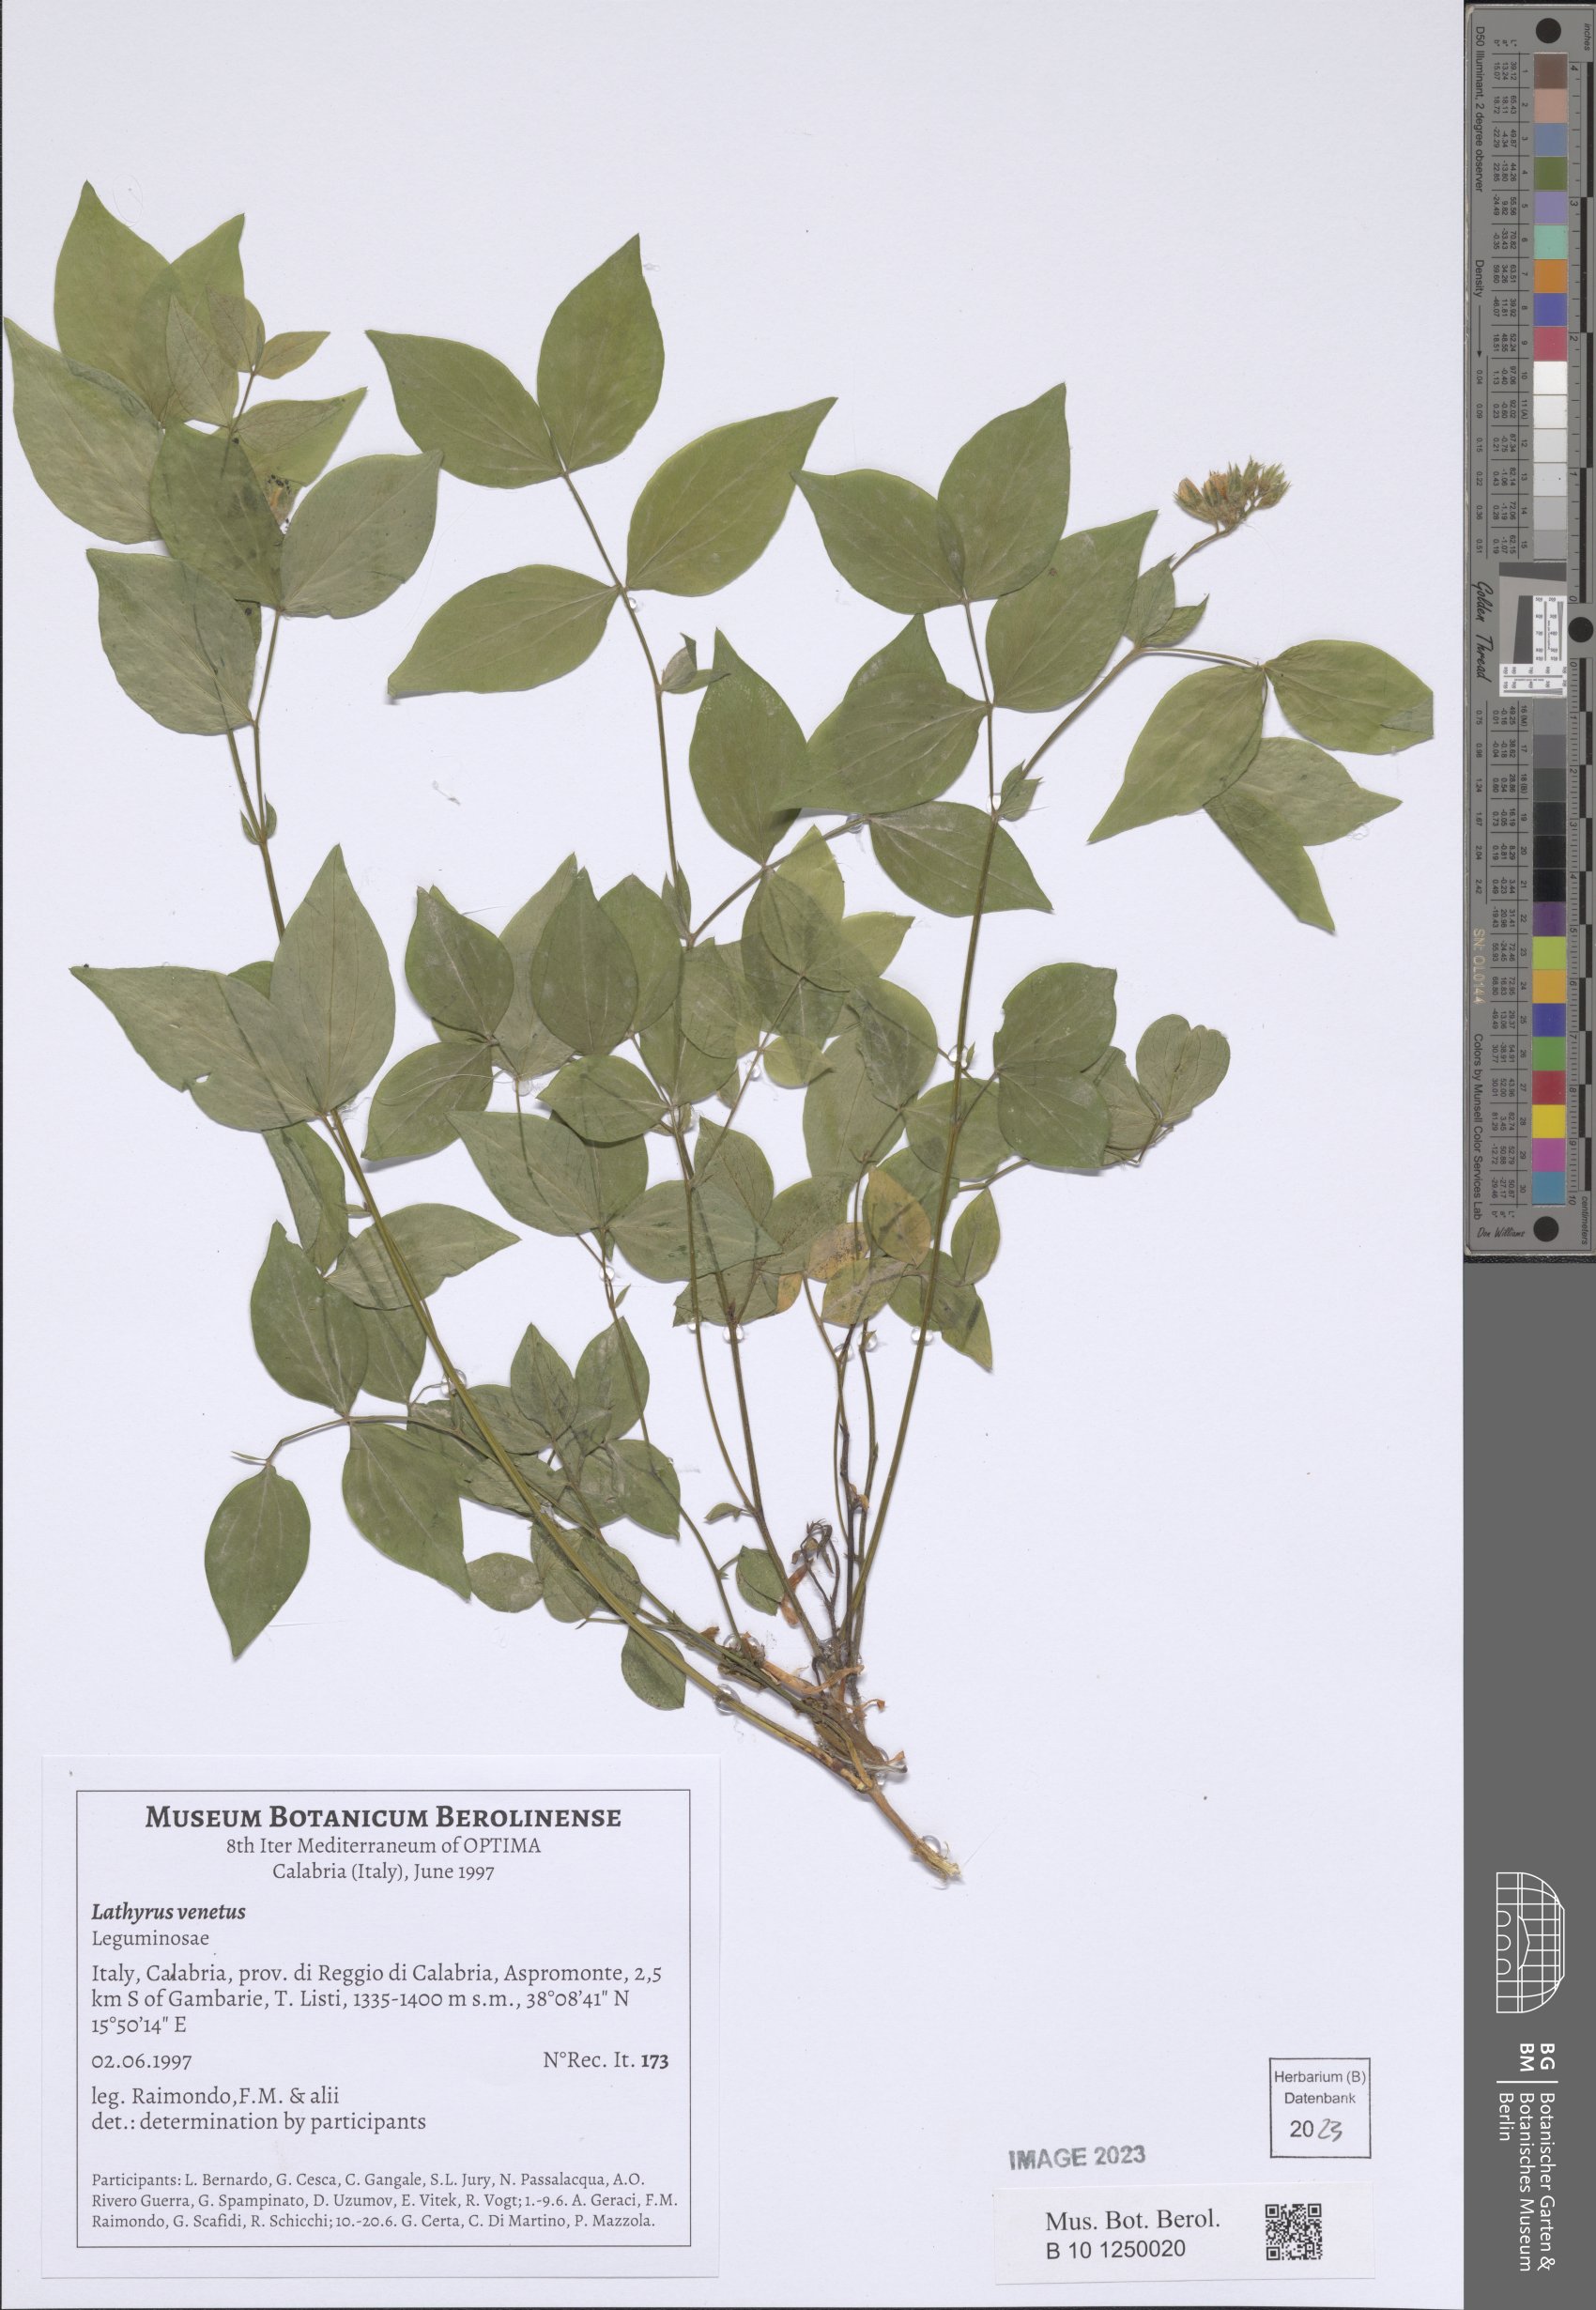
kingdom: Plantae
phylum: Tracheophyta
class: Magnoliopsida
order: Fabales
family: Fabaceae
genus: Lathyrus
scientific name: Lathyrus venetus
